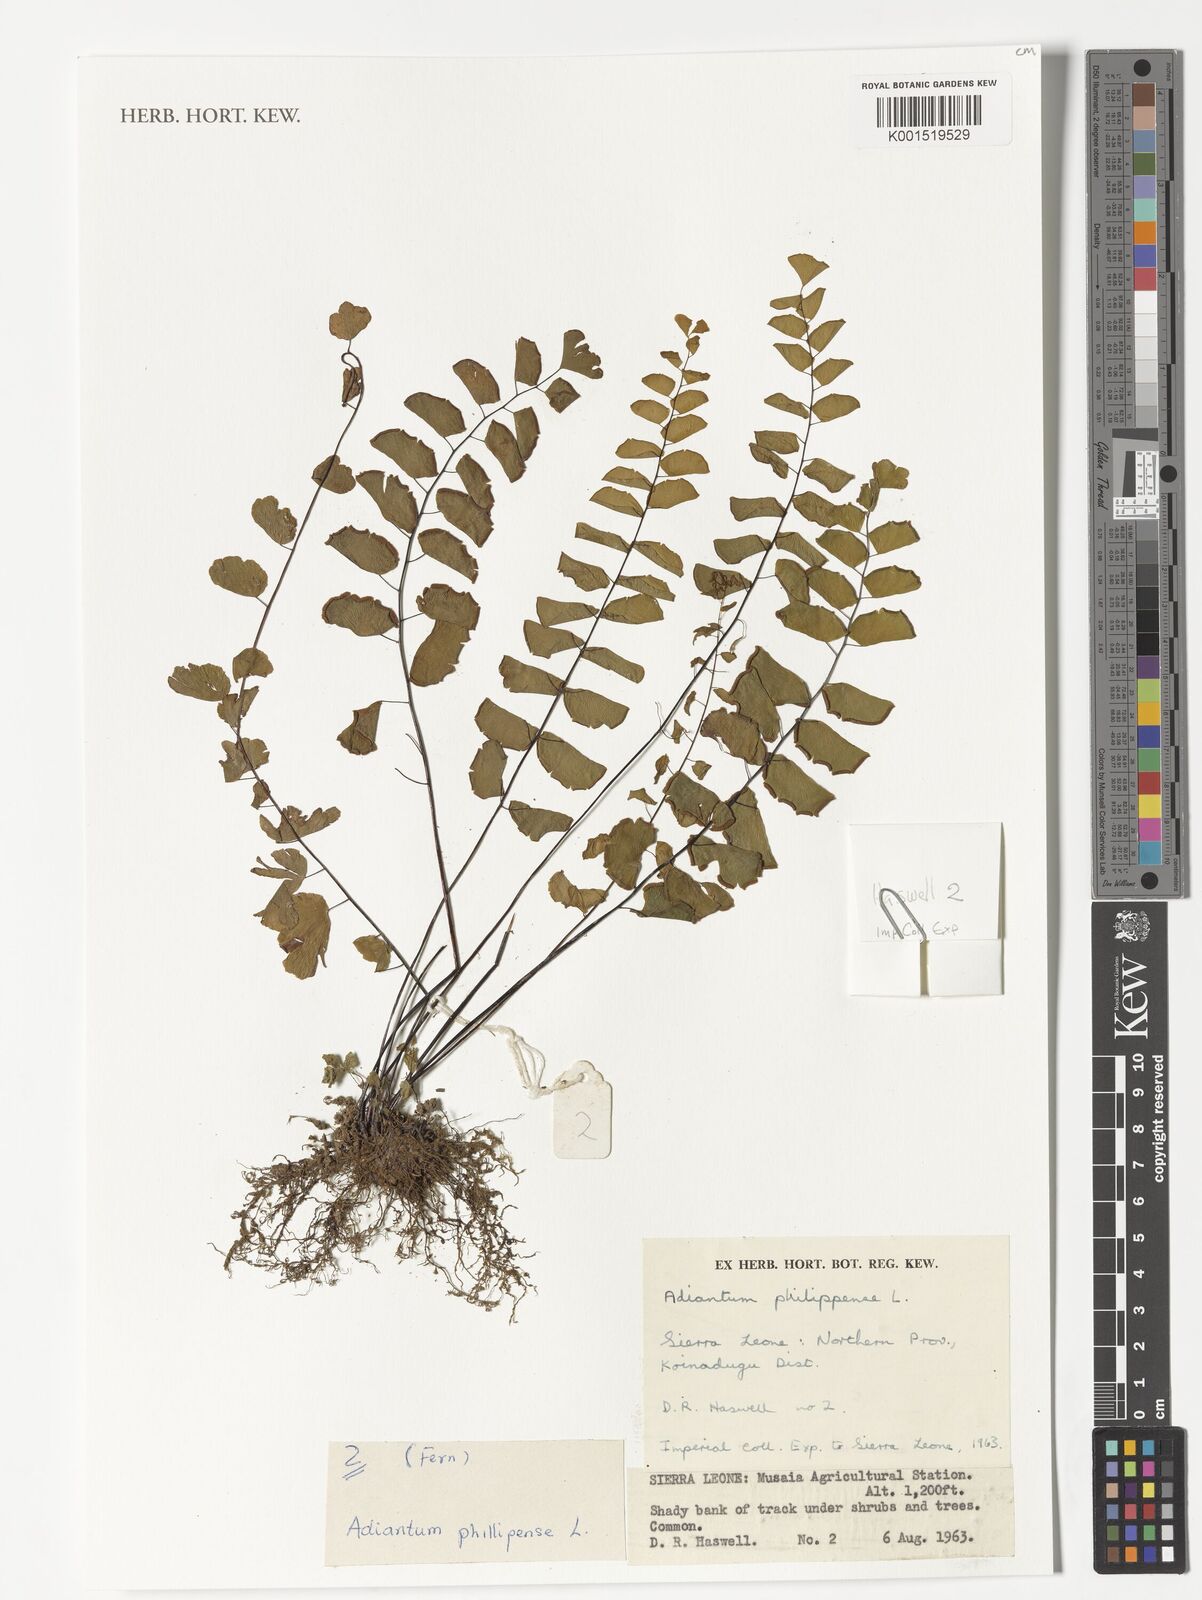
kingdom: Plantae
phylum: Tracheophyta
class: Polypodiopsida
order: Polypodiales
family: Pteridaceae
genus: Adiantum
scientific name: Adiantum philippense
